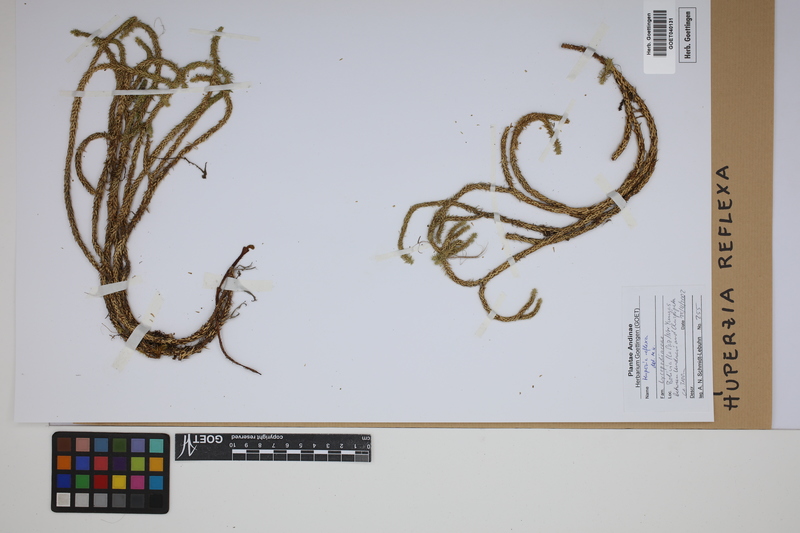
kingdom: Plantae
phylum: Tracheophyta
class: Lycopodiopsida
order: Lycopodiales
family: Lycopodiaceae
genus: Phlegmariurus
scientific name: Phlegmariurus reflexus
